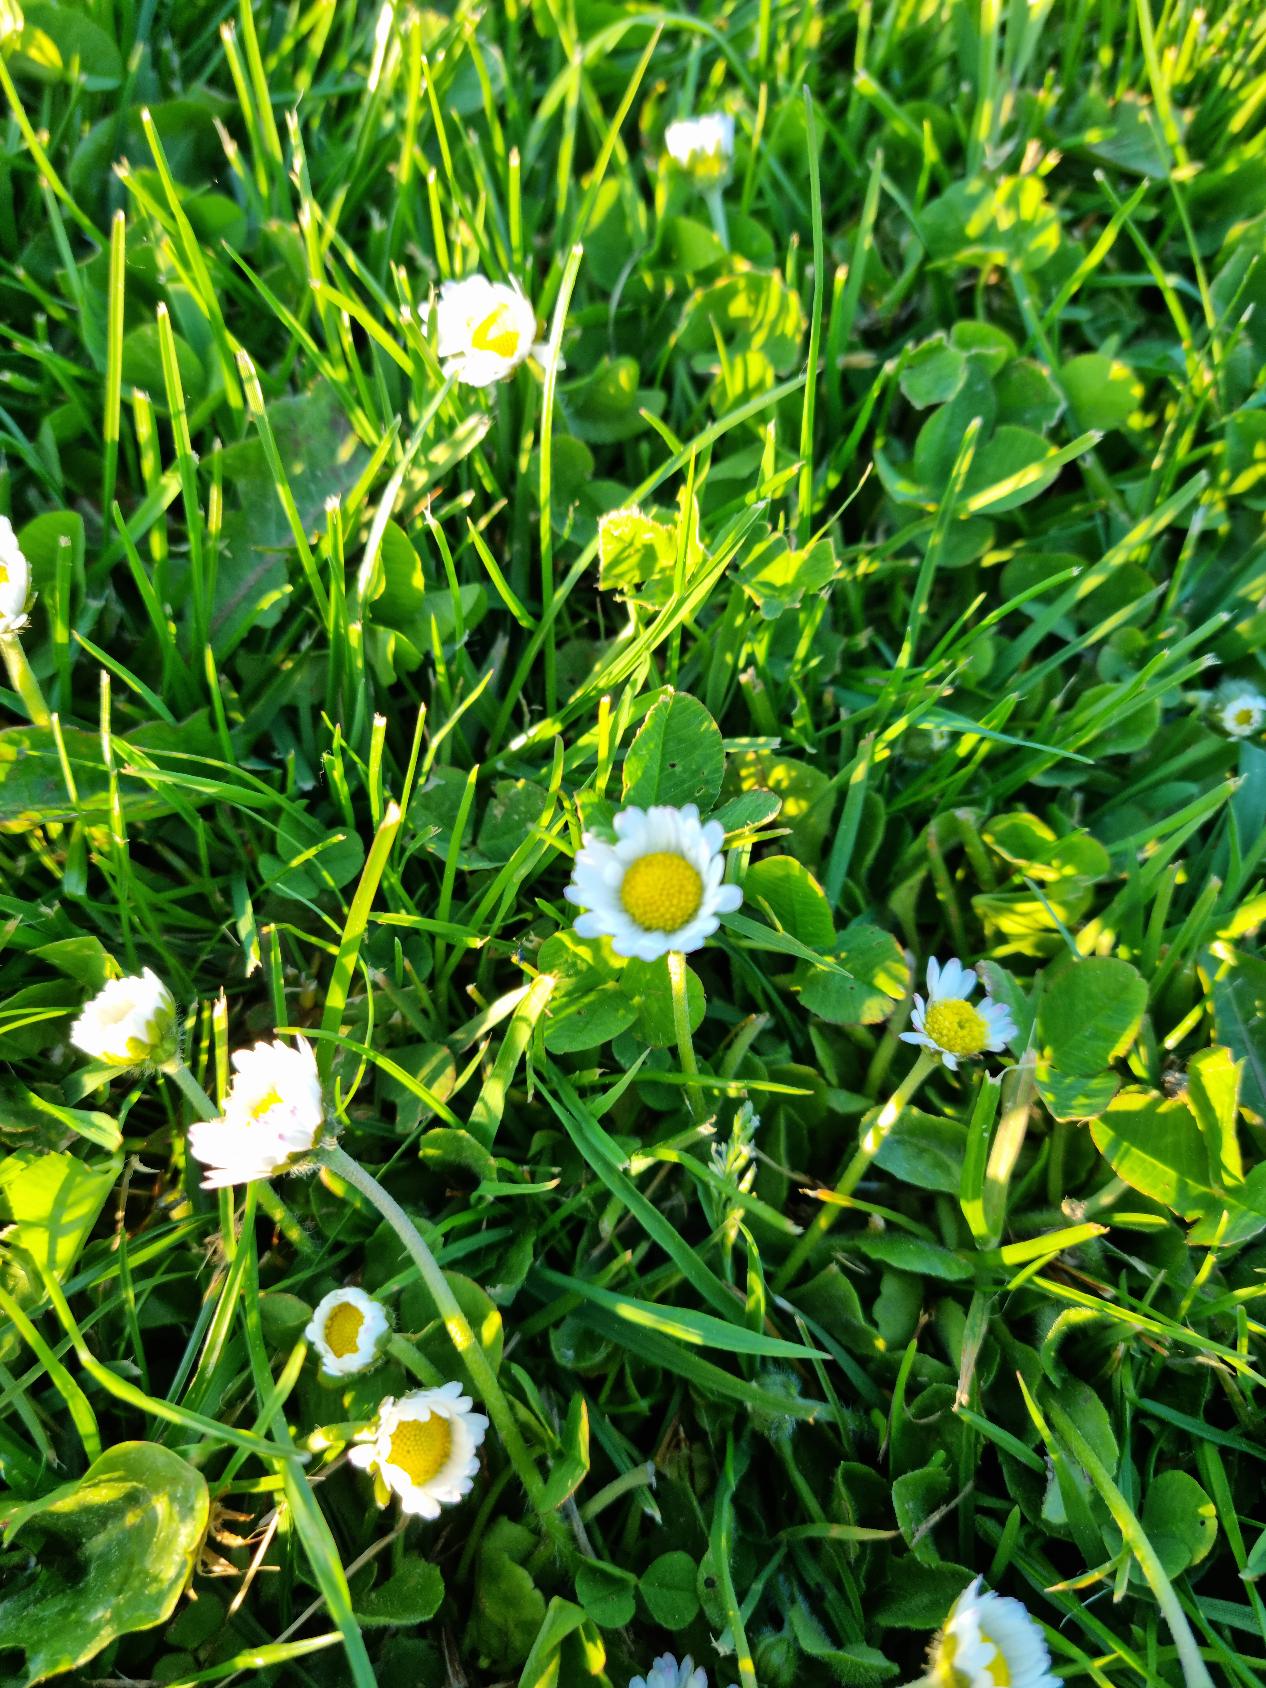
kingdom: Plantae
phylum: Tracheophyta
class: Magnoliopsida
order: Asterales
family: Asteraceae
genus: Bellis
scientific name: Bellis perennis
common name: Tusindfryd
